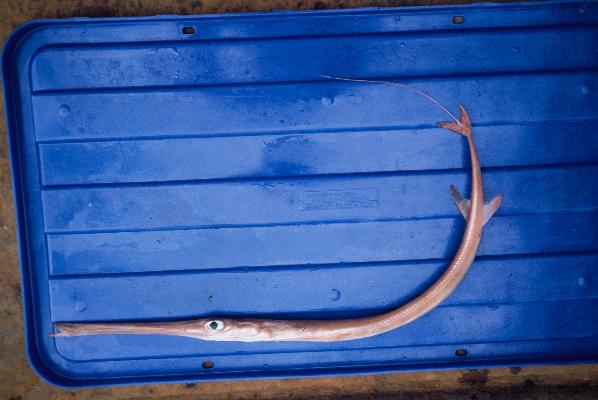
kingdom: Animalia
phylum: Chordata
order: Syngnathiformes
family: Fistulariidae
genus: Fistularia
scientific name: Fistularia petimba
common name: Red cornetfish
